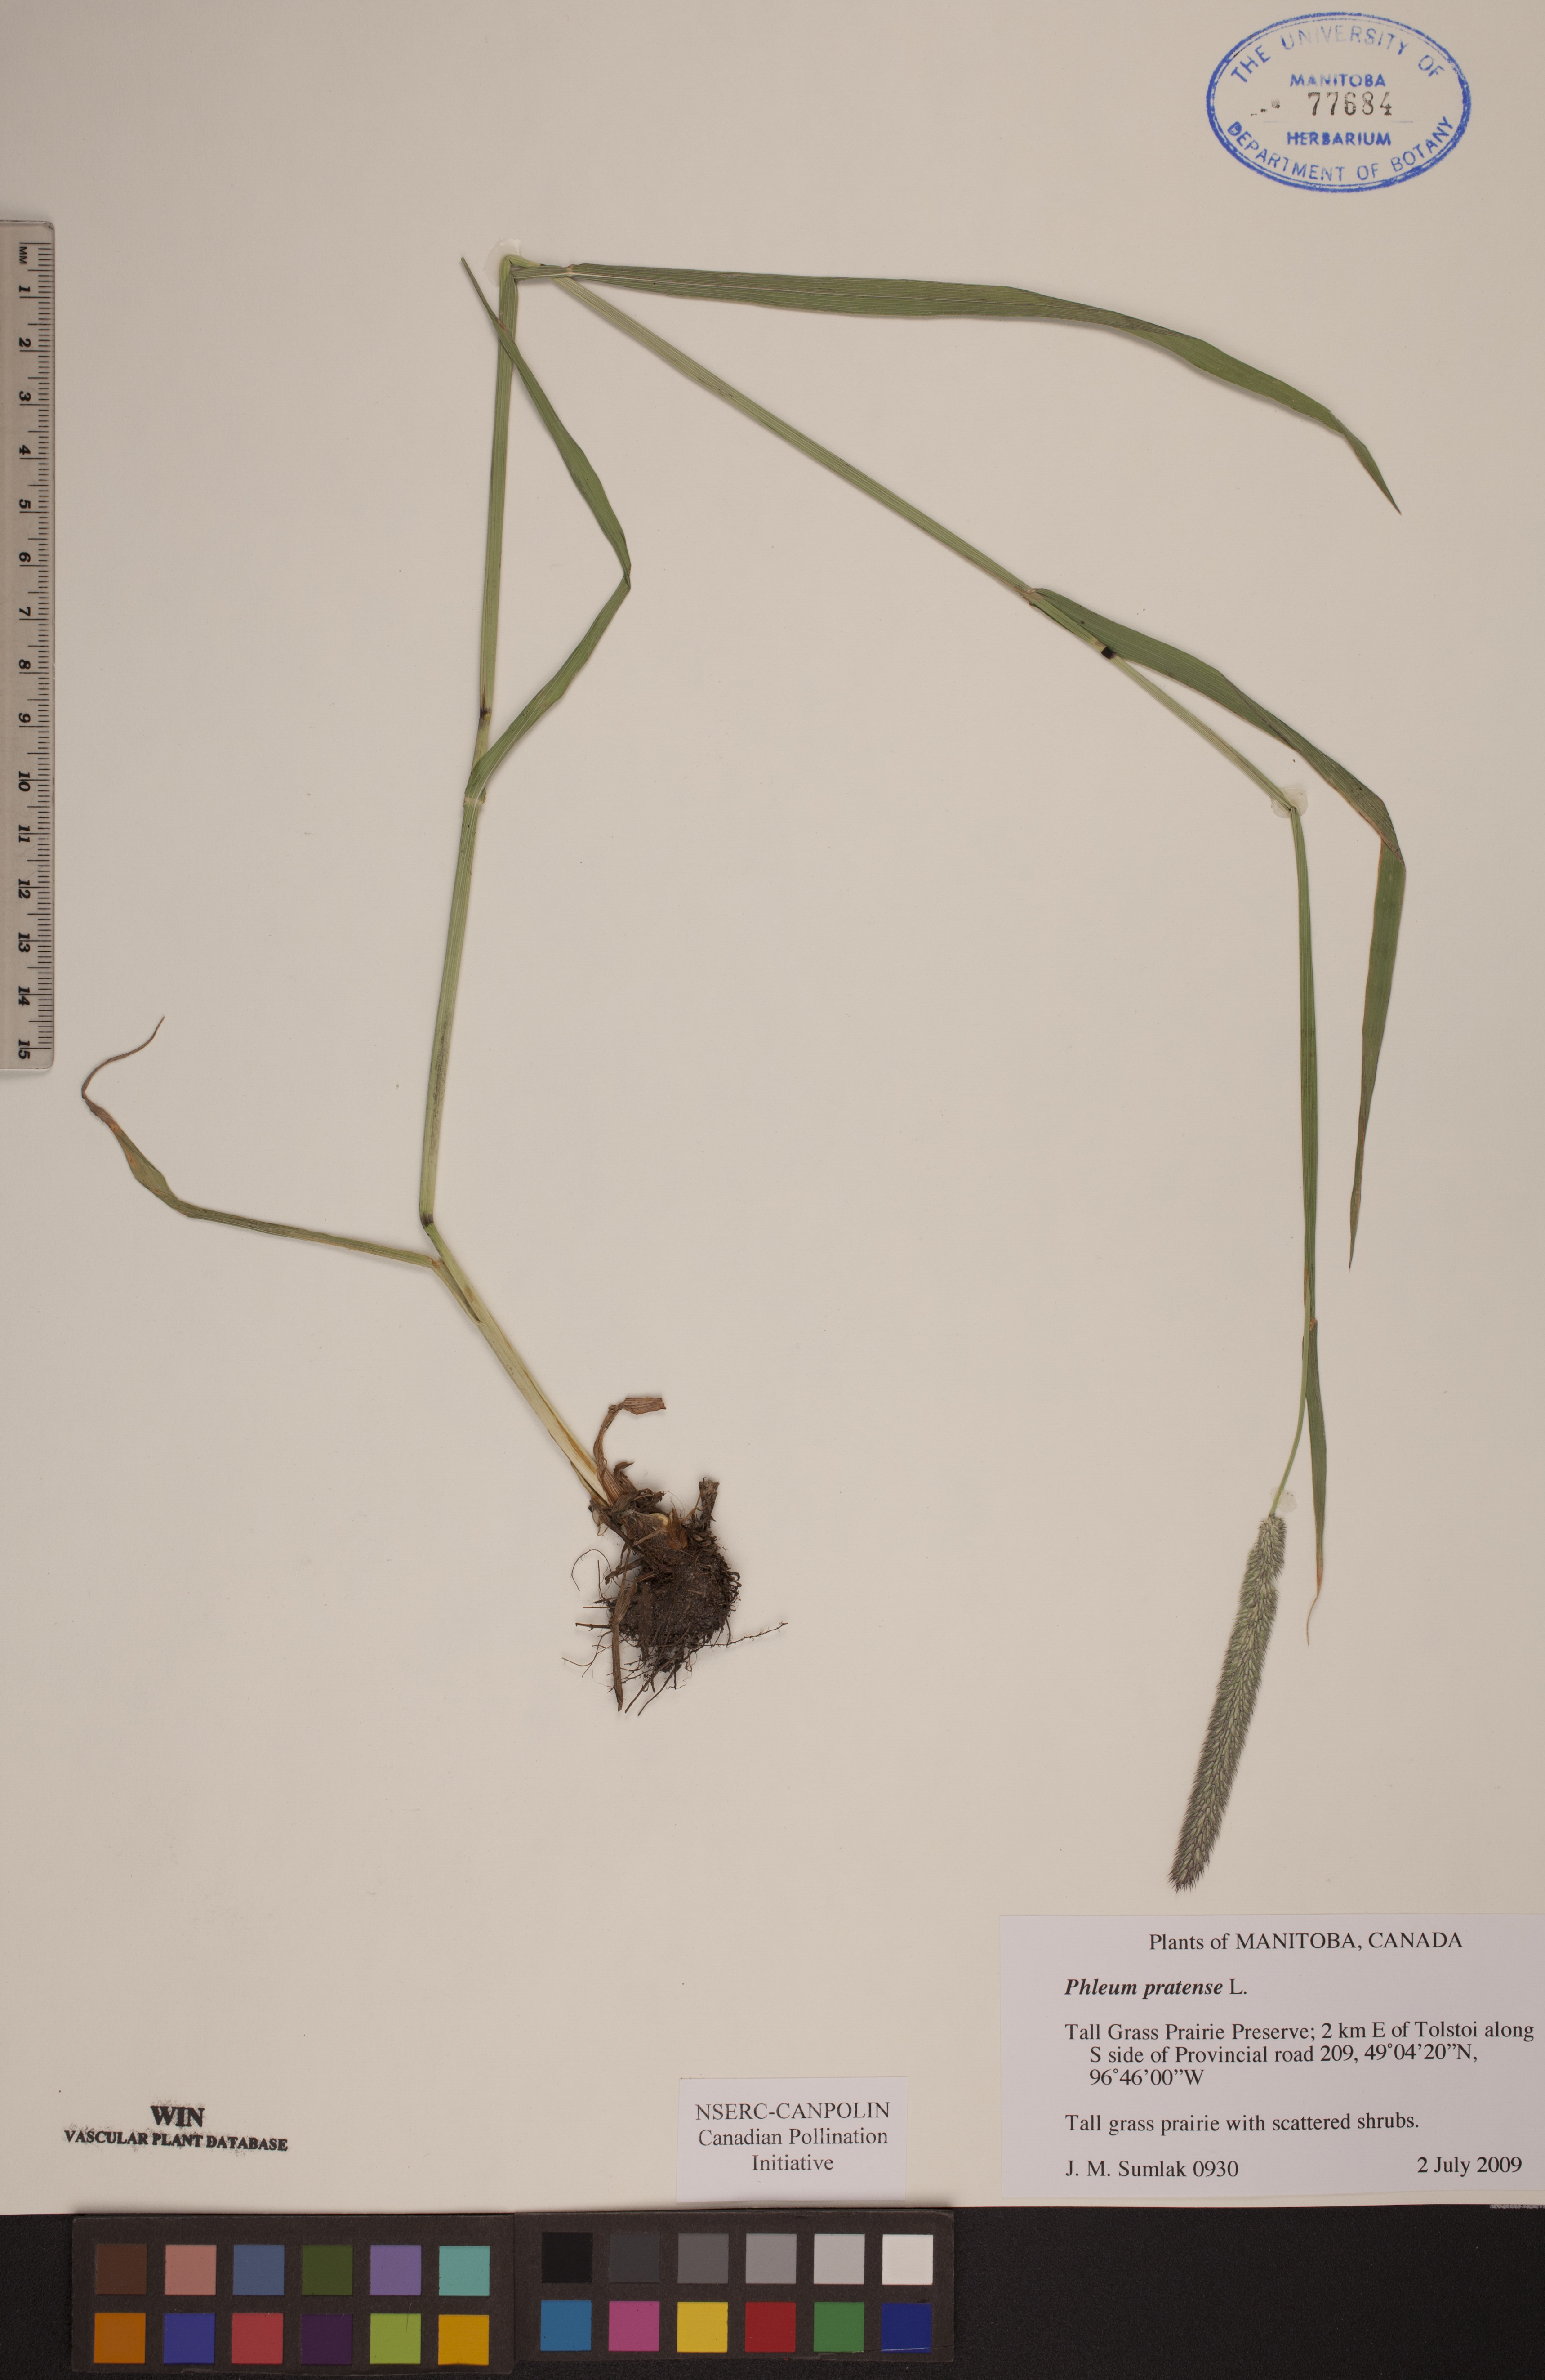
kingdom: Plantae
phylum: Tracheophyta
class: Liliopsida
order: Poales
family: Poaceae
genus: Phleum
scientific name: Phleum pratense
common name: Timothy grass
